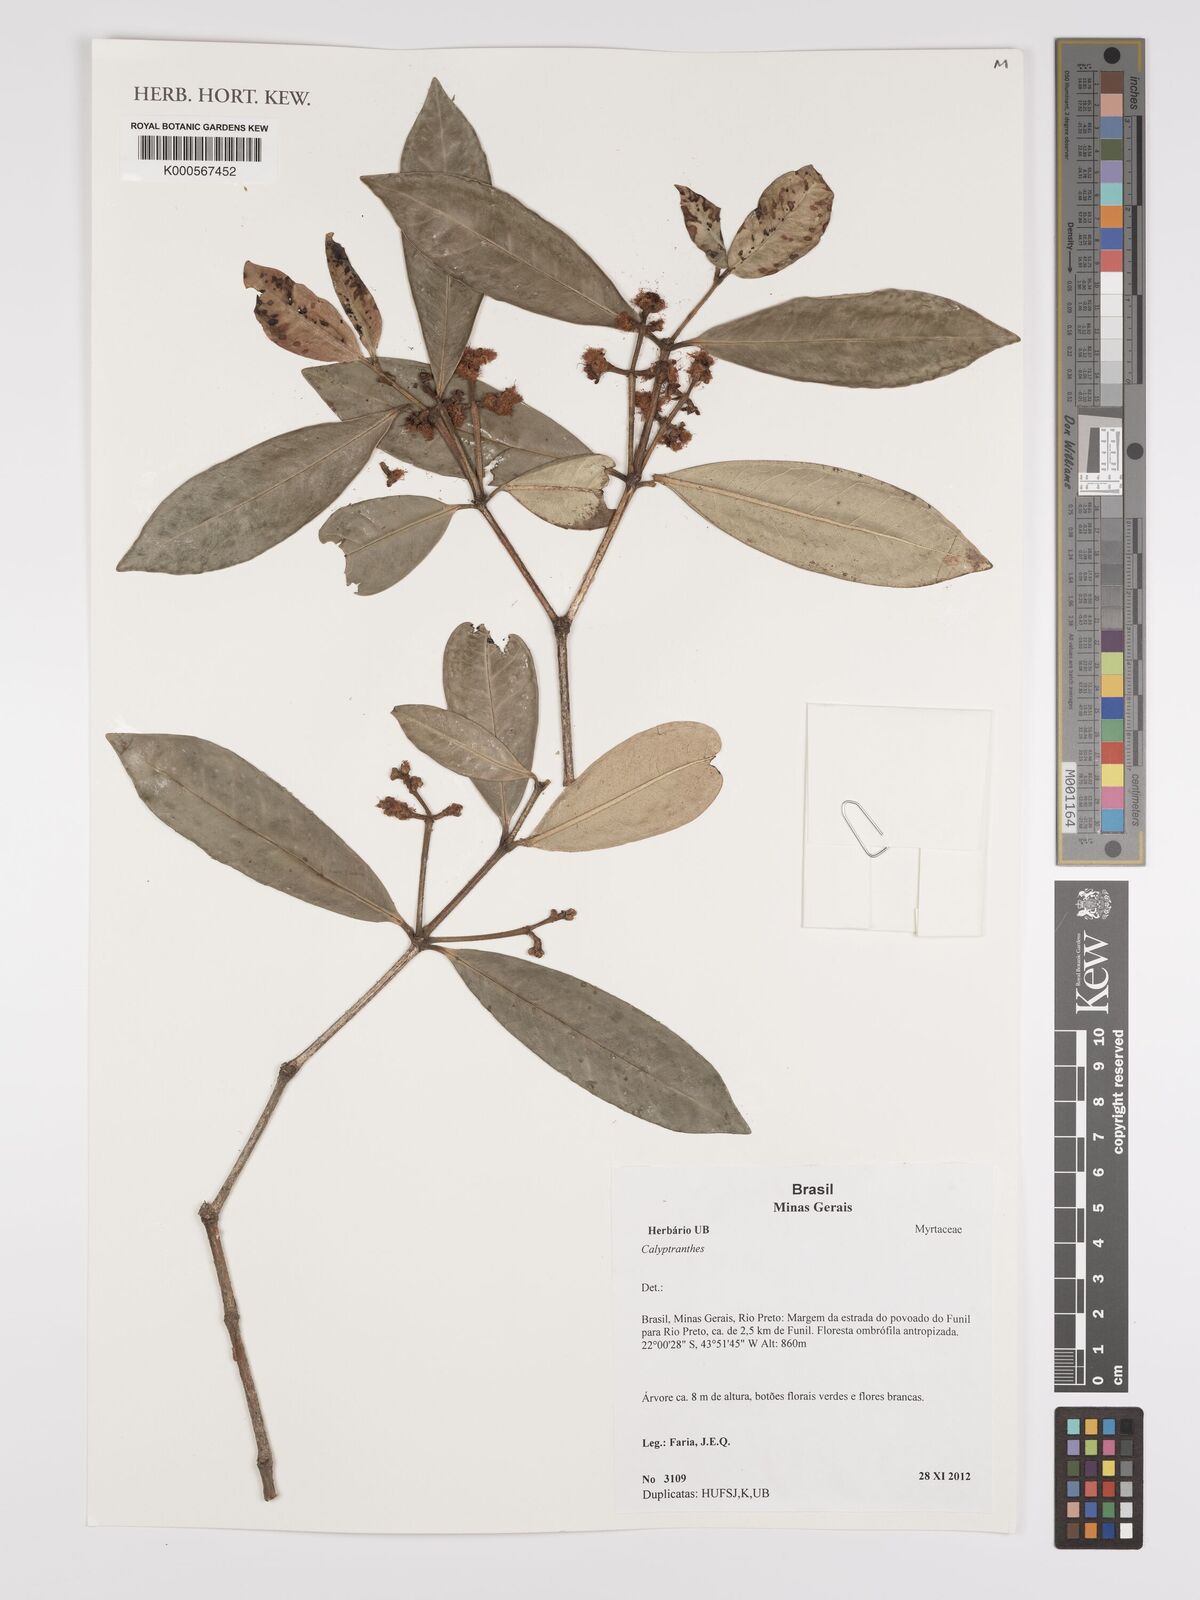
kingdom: Plantae
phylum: Tracheophyta
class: Magnoliopsida
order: Myrtales
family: Myrtaceae
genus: Calyptranthes
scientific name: Calyptranthes
